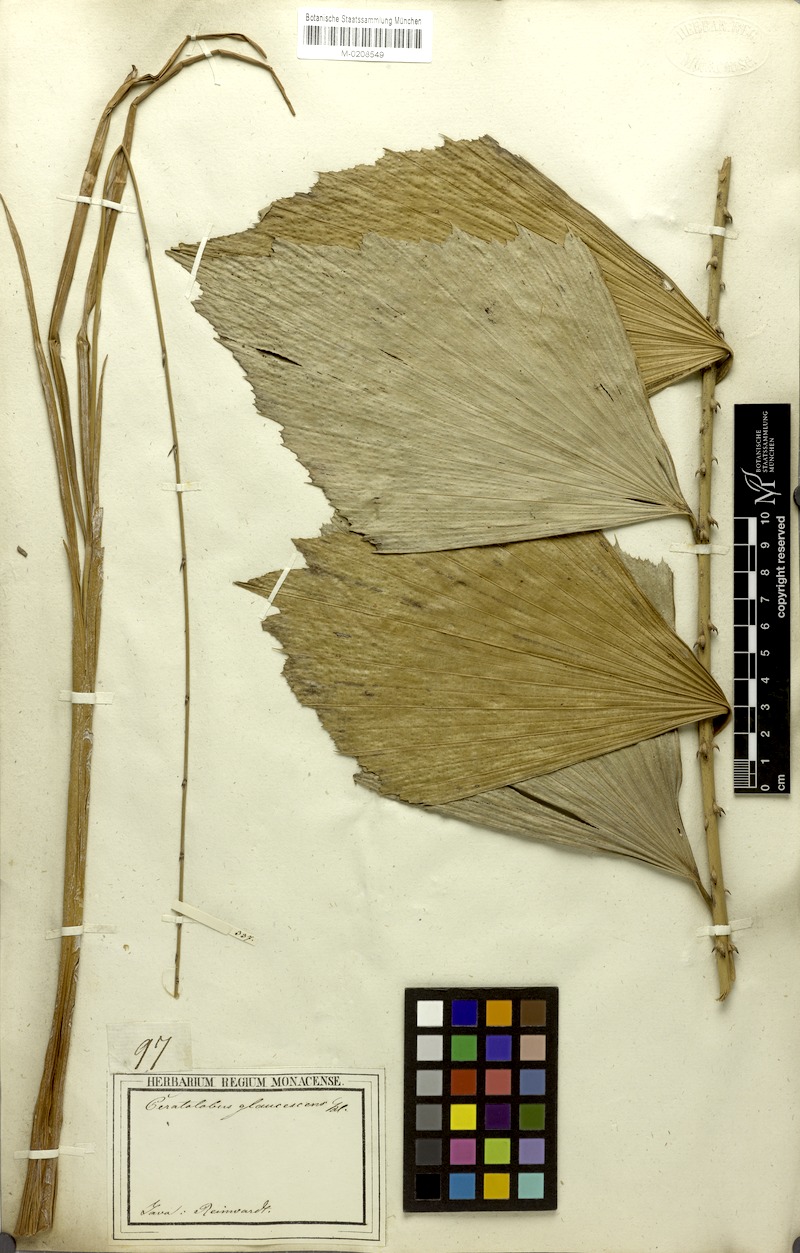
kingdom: Plantae
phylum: Tracheophyta
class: Liliopsida
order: Arecales
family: Arecaceae
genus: Calamus
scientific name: Calamus glaucescens
